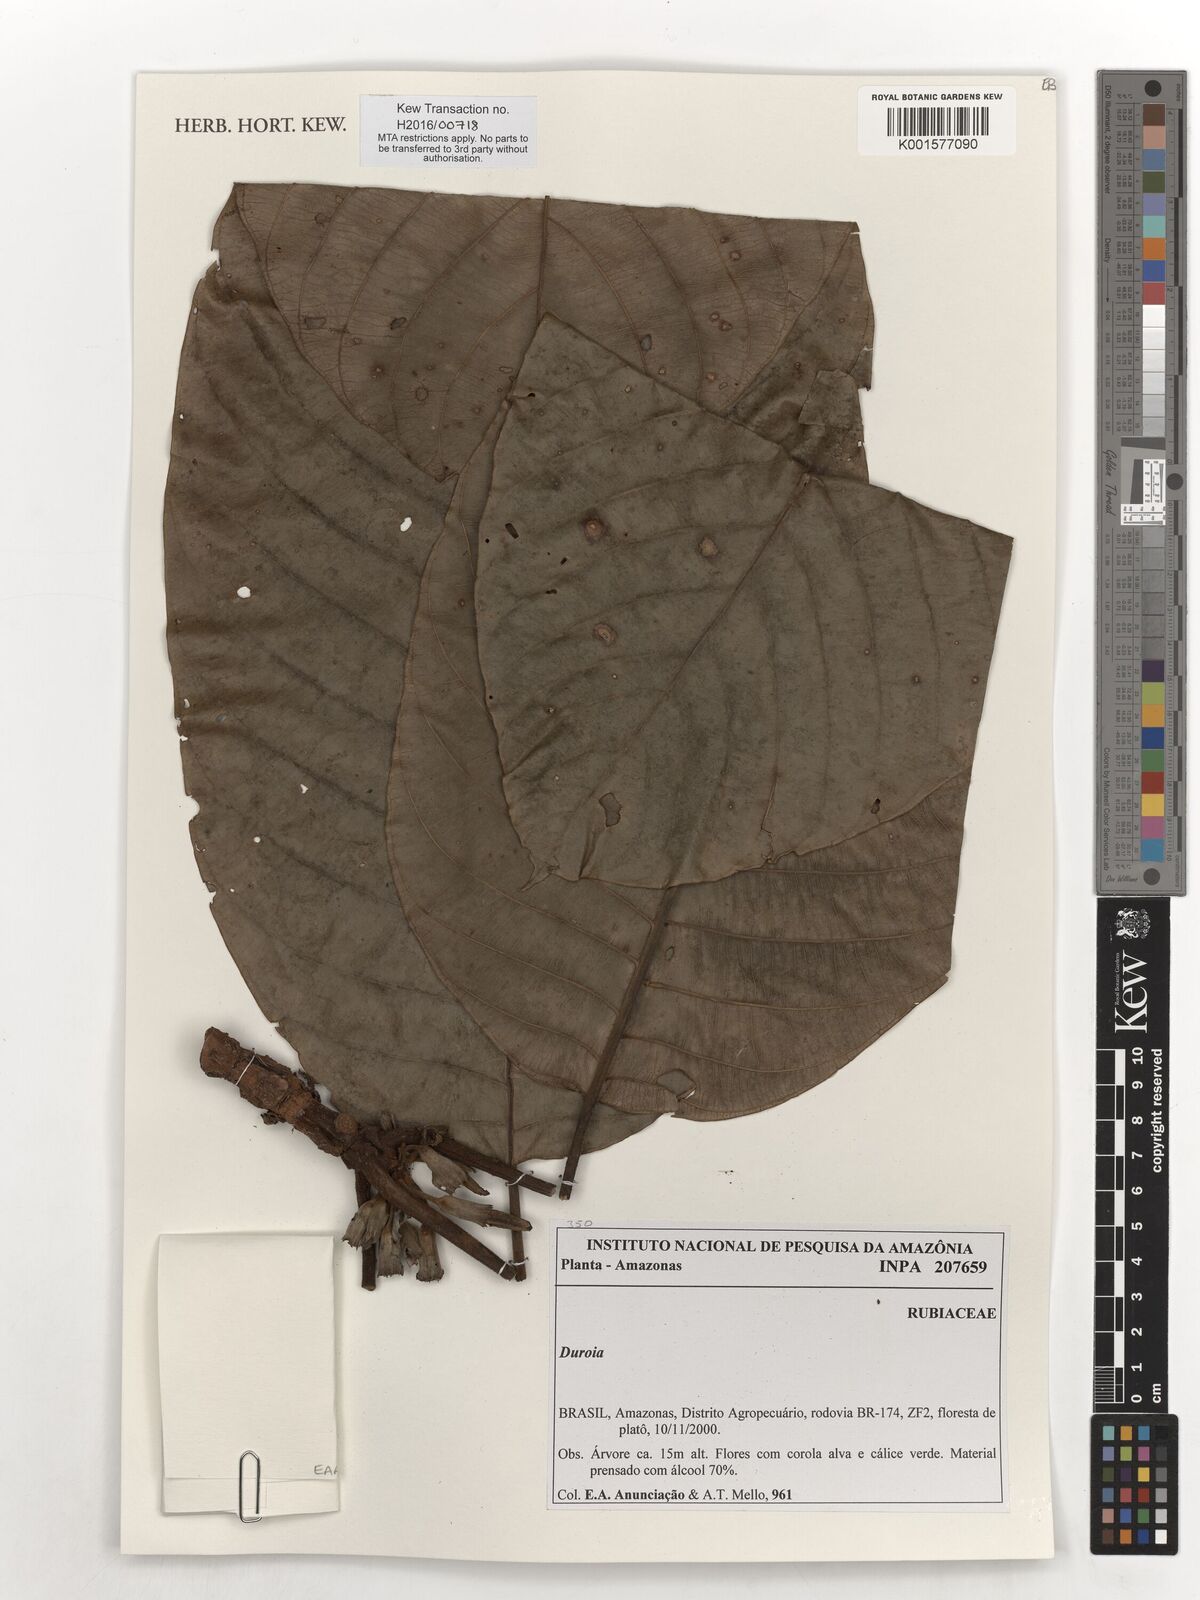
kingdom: Plantae
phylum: Tracheophyta
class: Magnoliopsida
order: Gentianales
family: Rubiaceae
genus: Duroia
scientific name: Duroia
